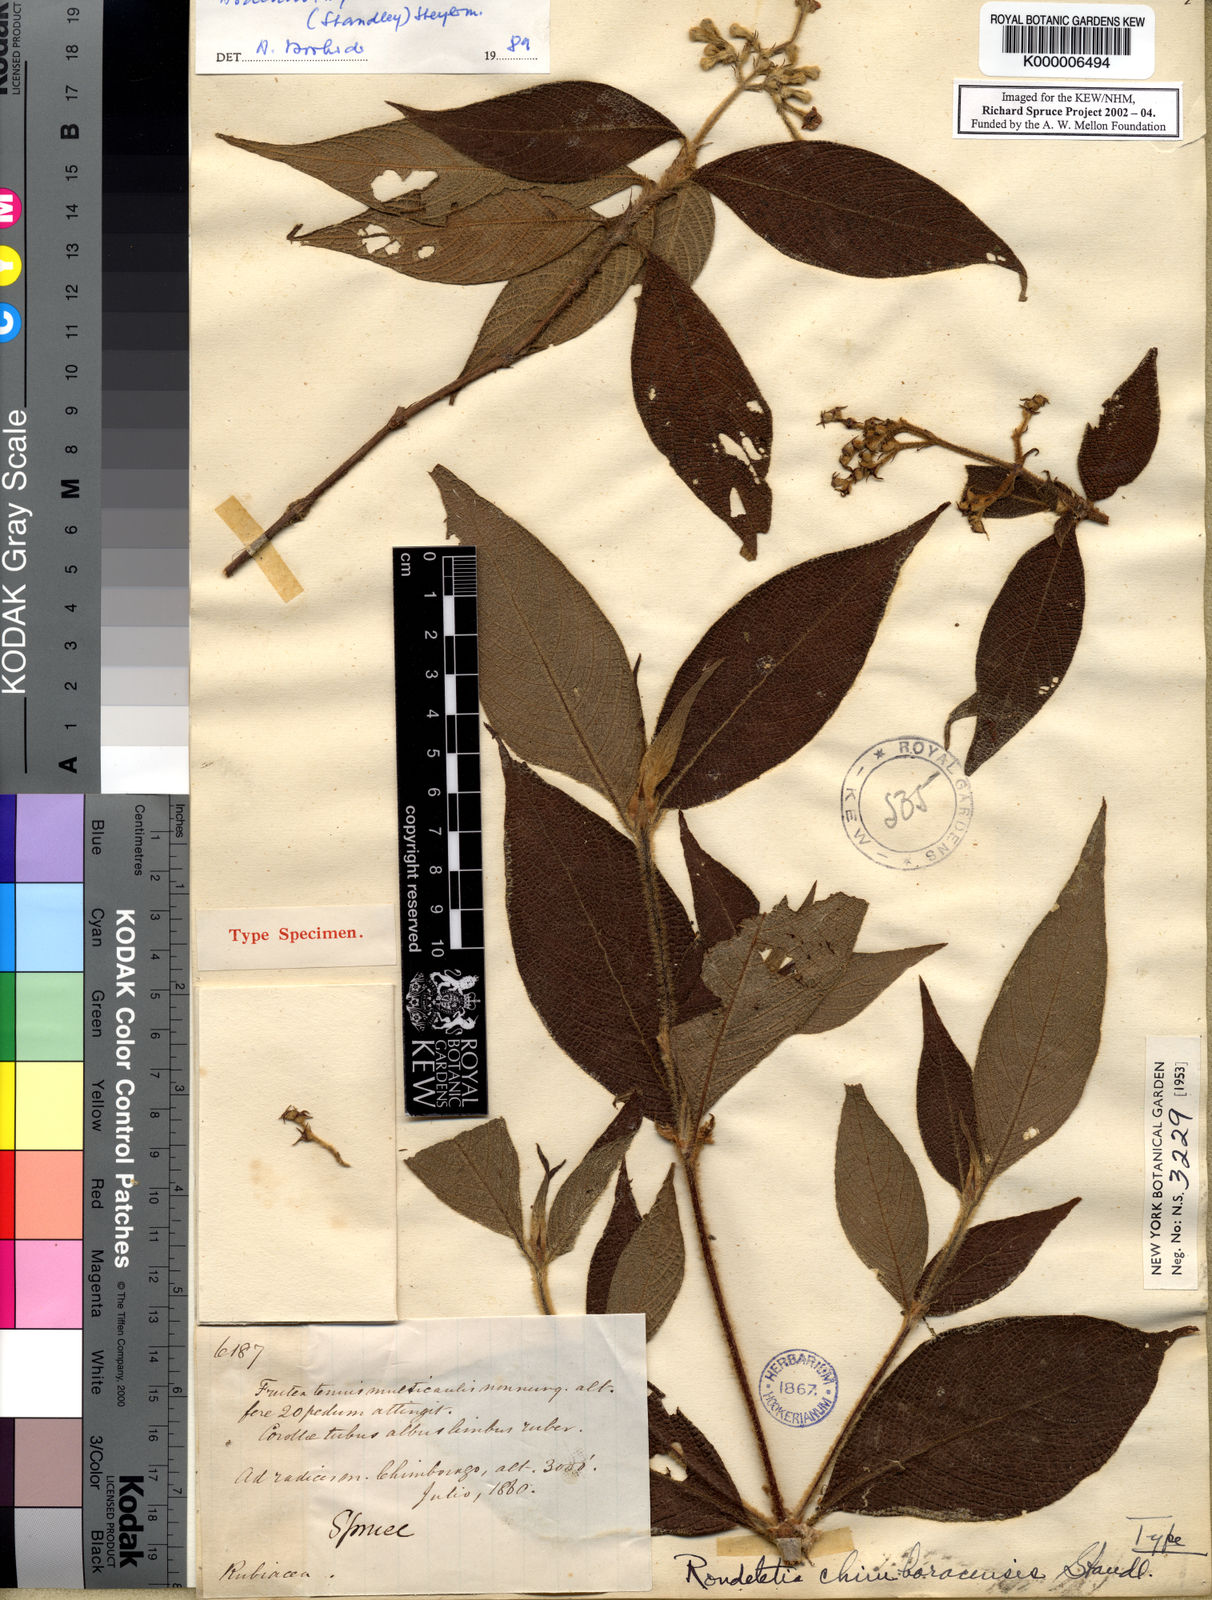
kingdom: Plantae
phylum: Tracheophyta
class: Magnoliopsida
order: Gentianales
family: Rubiaceae
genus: Arachnothryx
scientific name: Arachnothryx chimboracensis
